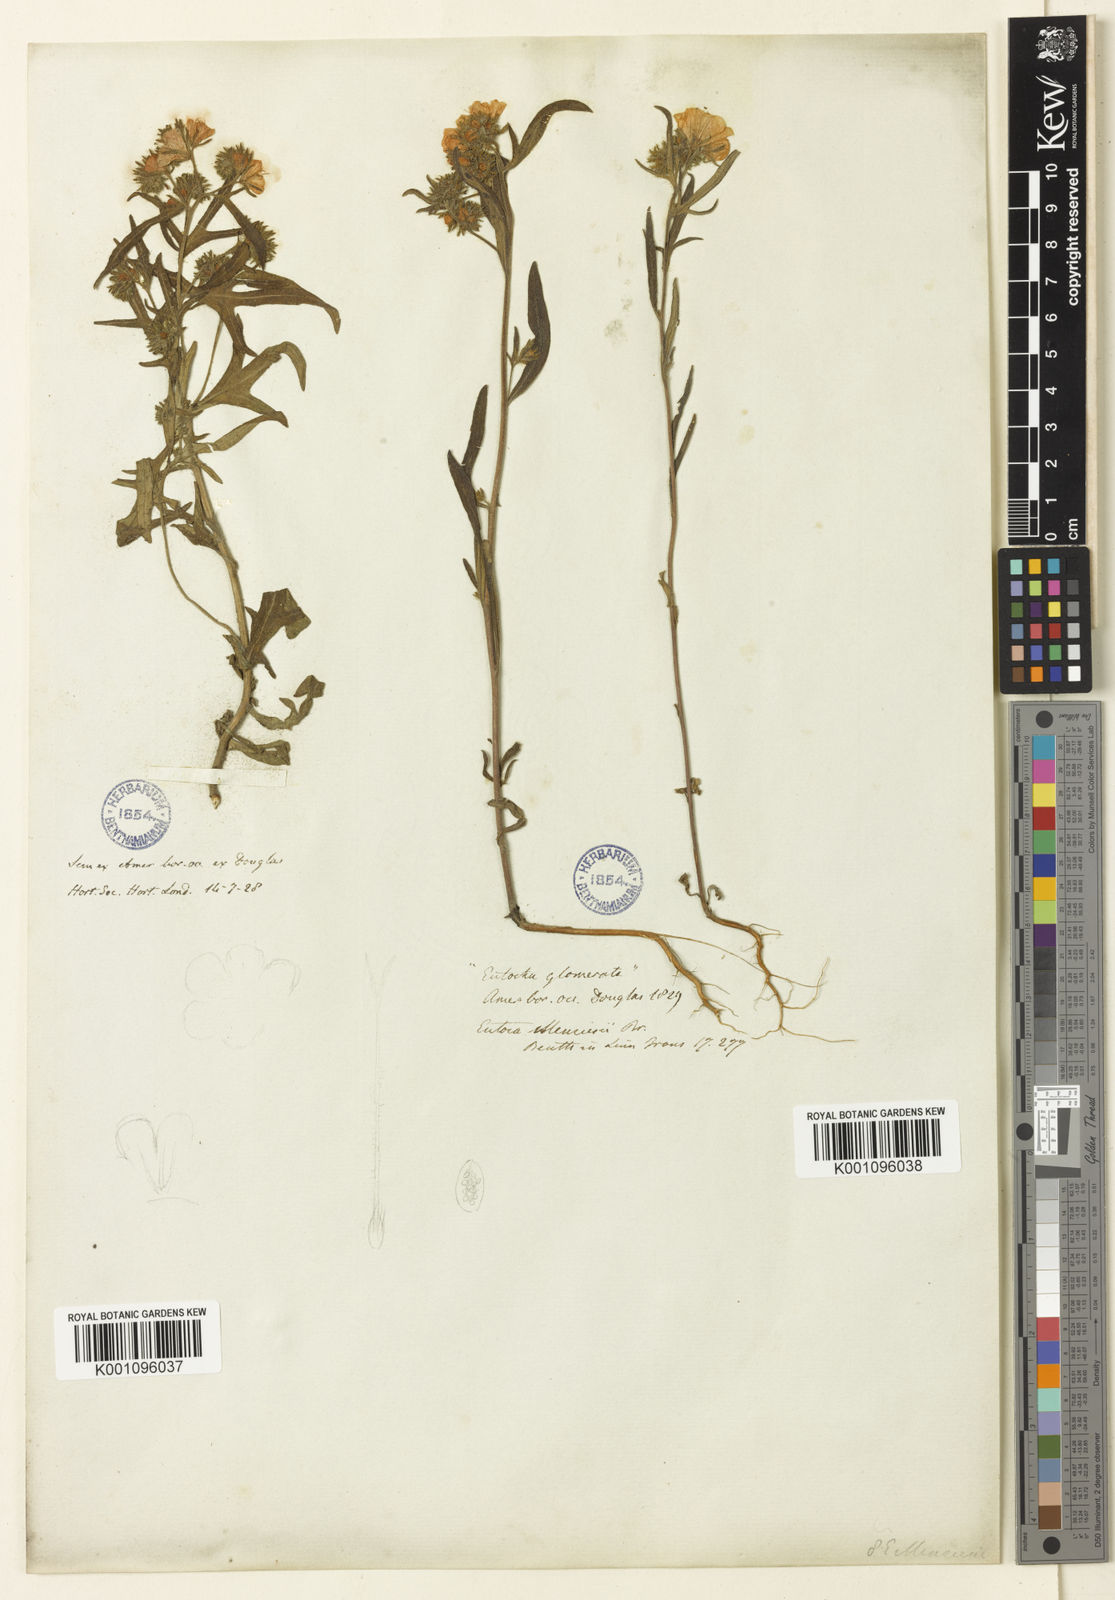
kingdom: Plantae
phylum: Tracheophyta
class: Magnoliopsida
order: Boraginales
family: Hydrophyllaceae
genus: Phacelia
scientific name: Phacelia linearis
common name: Linear-leaved phacelia
